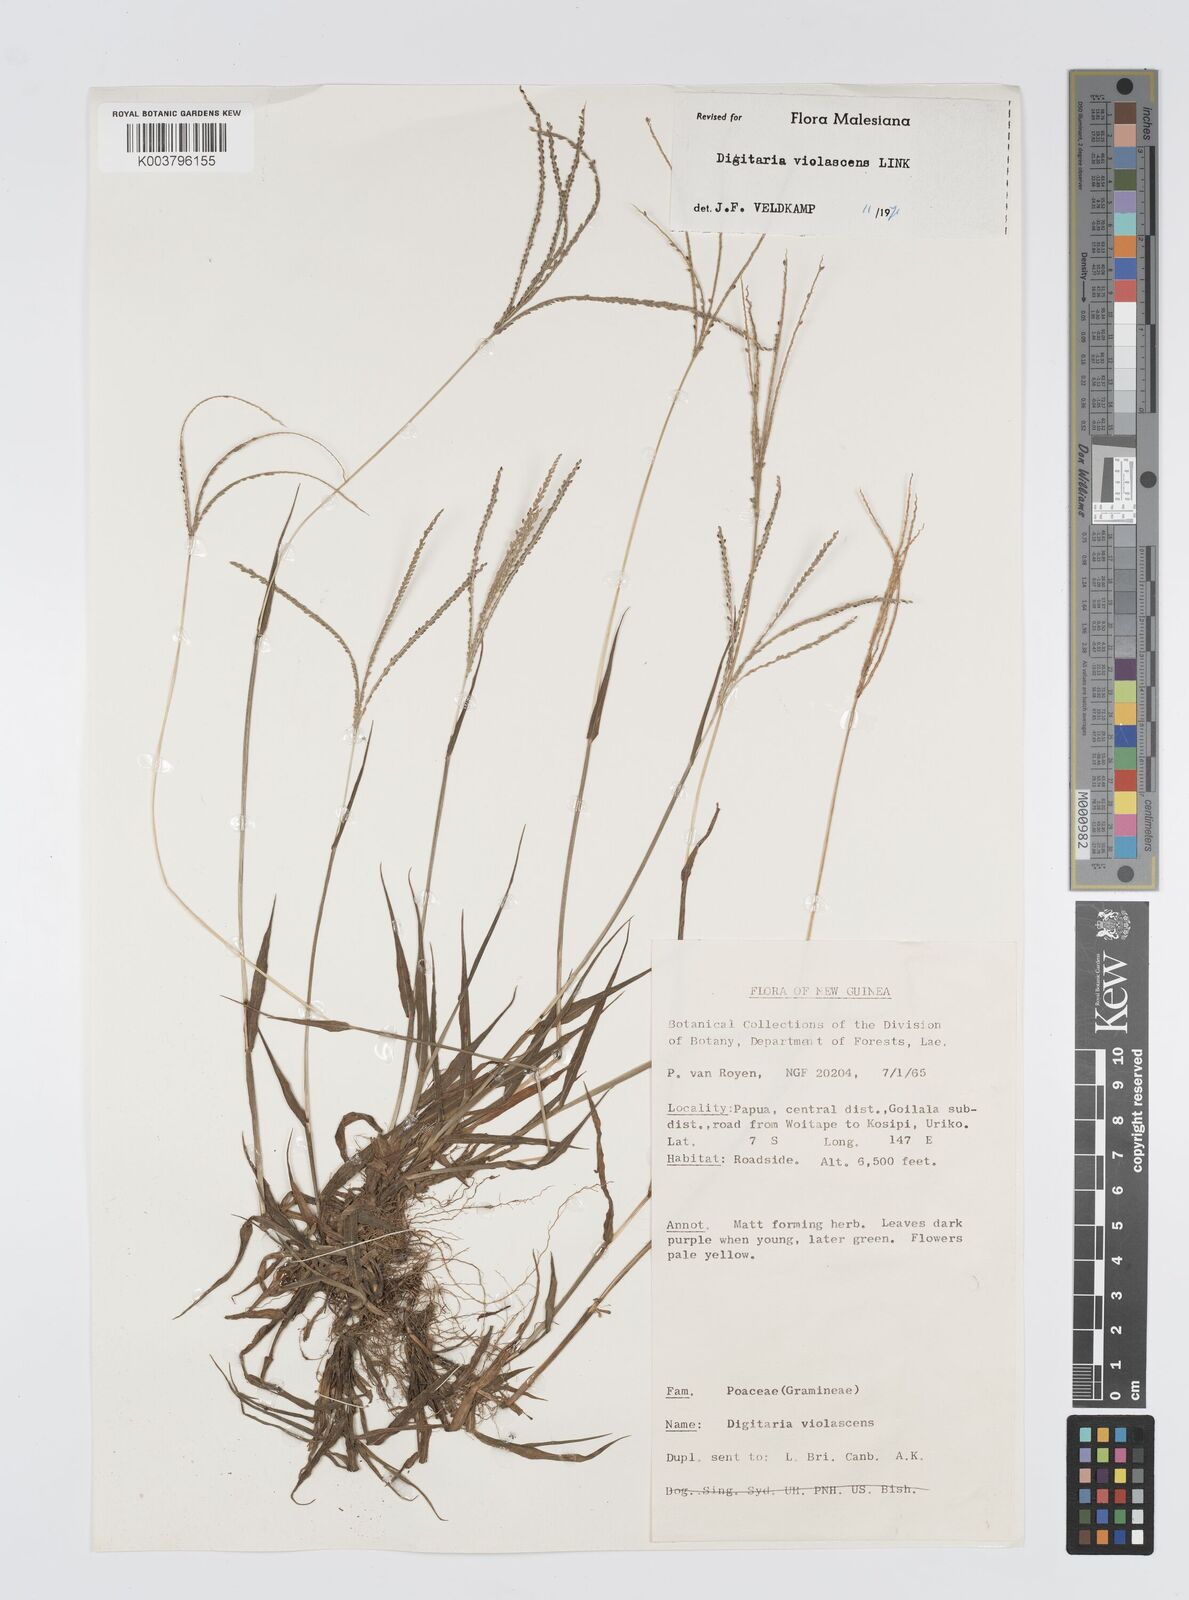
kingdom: Plantae
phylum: Tracheophyta
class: Liliopsida
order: Poales
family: Poaceae
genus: Digitaria
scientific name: Digitaria violascens
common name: Violet crabgrass
